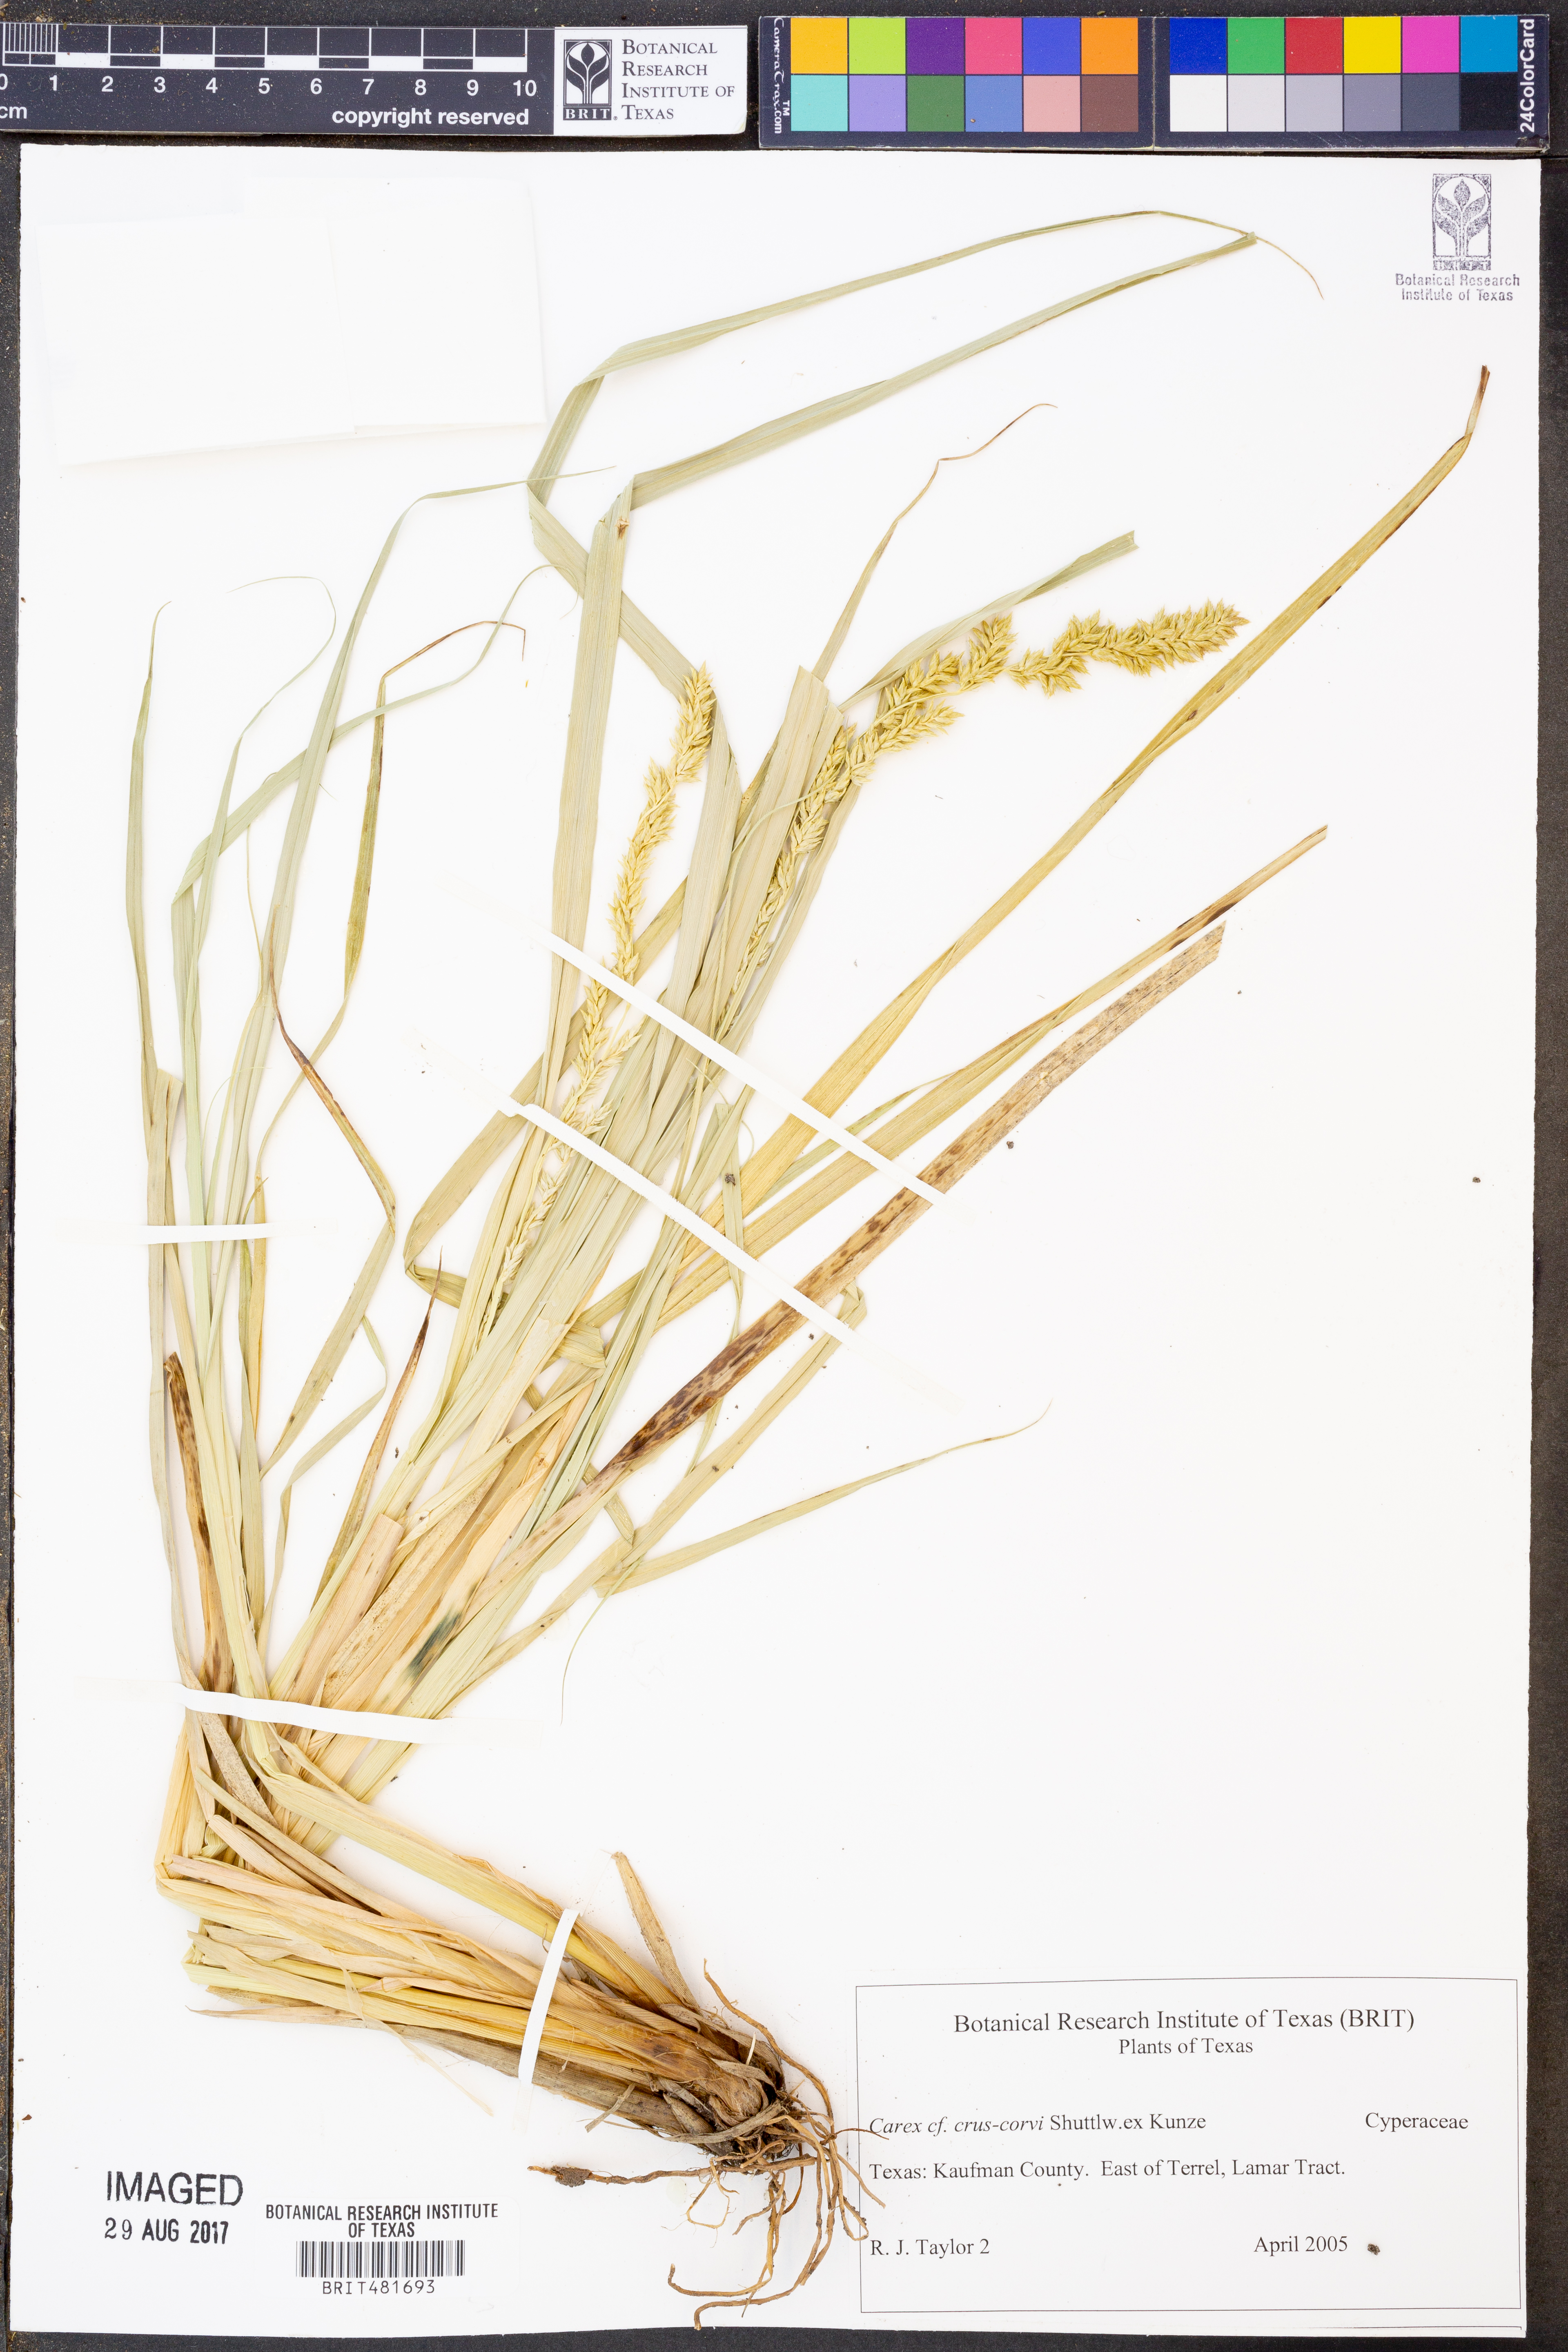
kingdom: Plantae
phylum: Tracheophyta
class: Liliopsida
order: Poales
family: Cyperaceae
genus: Carex
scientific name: Carex crus-corvi
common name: Crow-spur sedge
